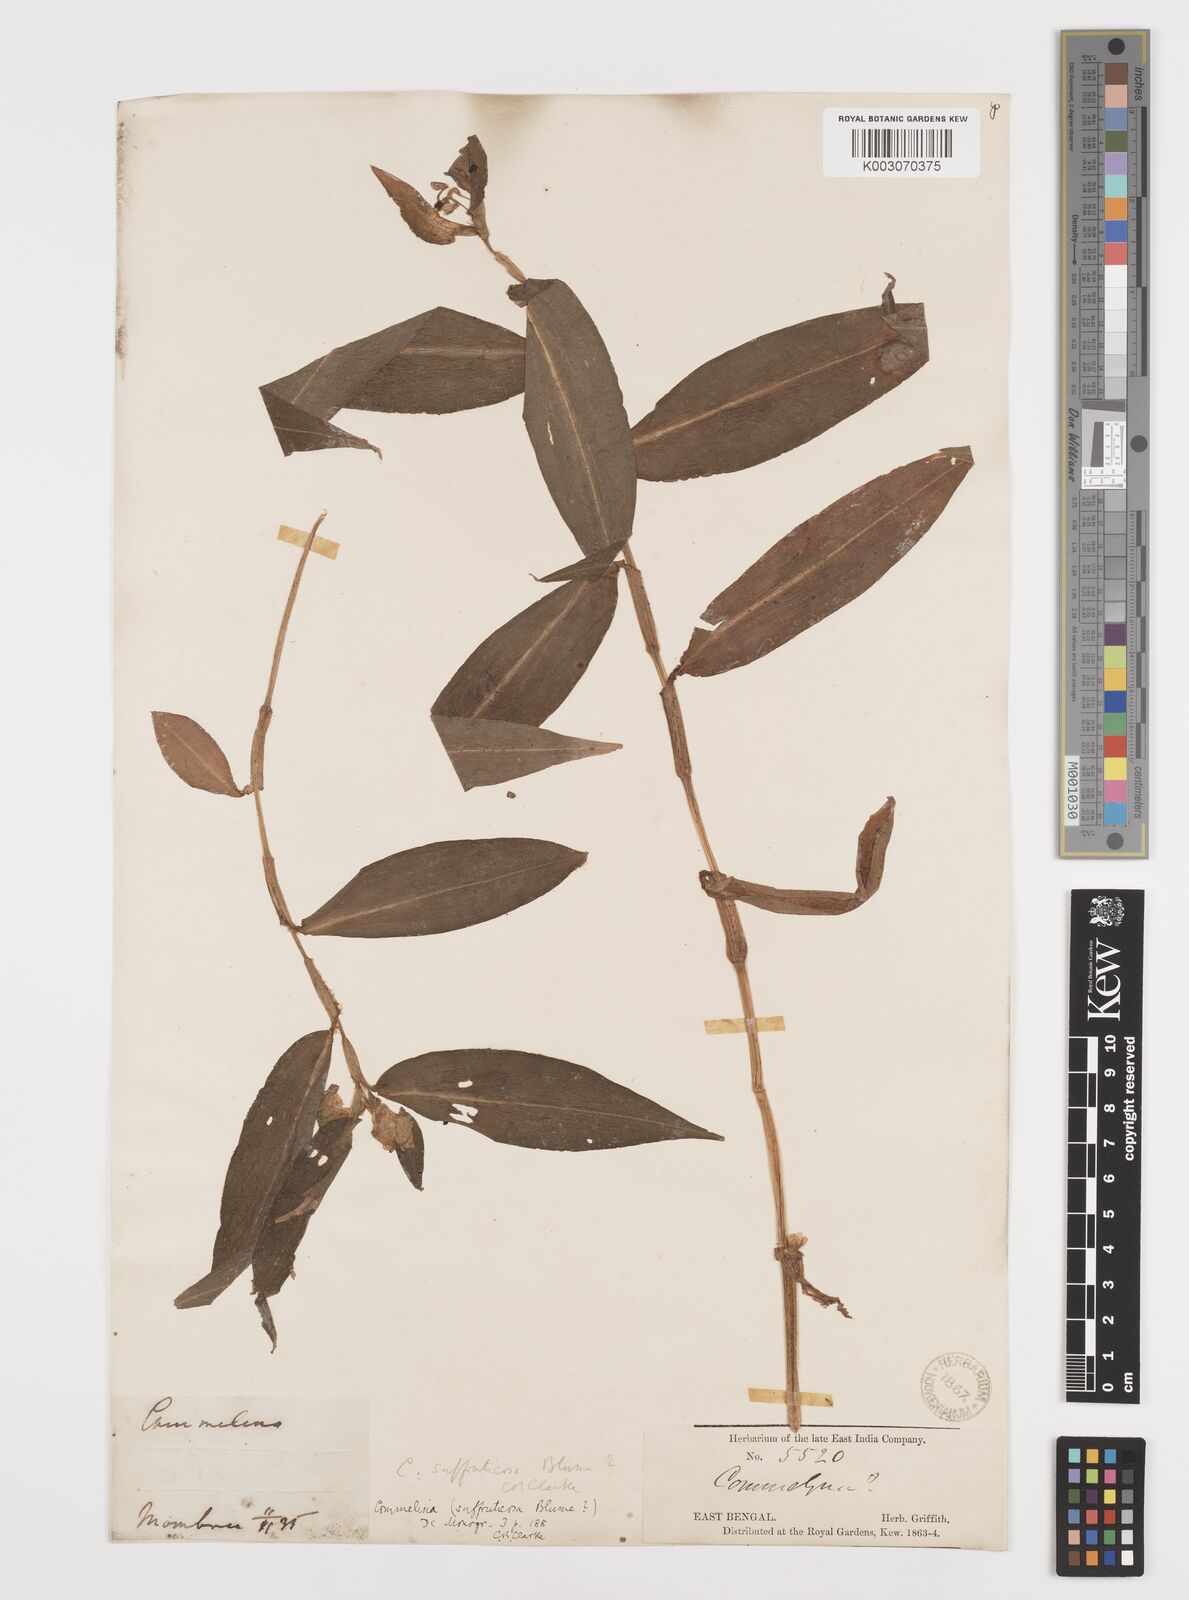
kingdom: Plantae
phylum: Tracheophyta
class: Liliopsida
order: Commelinales
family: Commelinaceae
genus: Commelina
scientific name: Commelina suffruticosa
